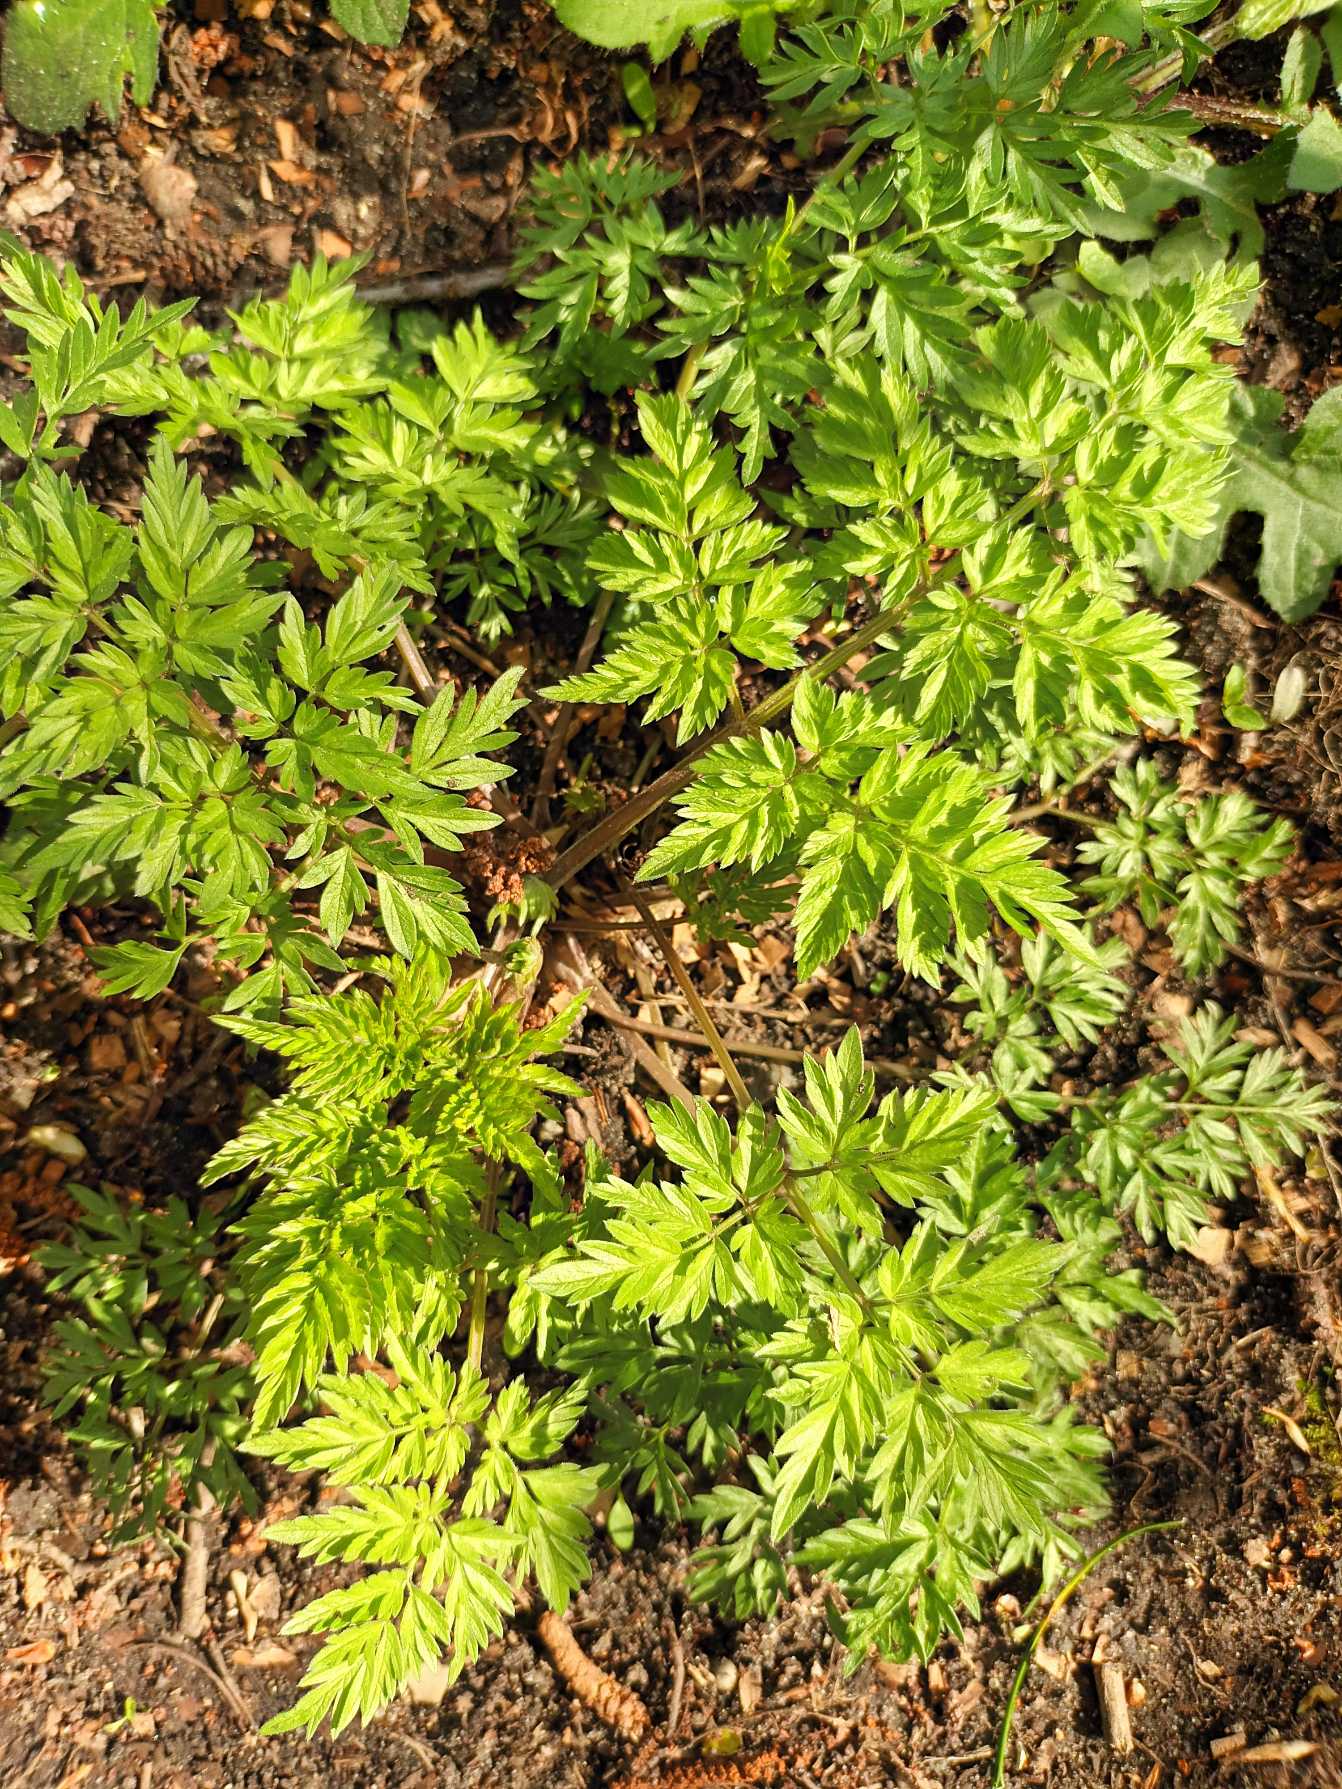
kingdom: Plantae
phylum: Tracheophyta
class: Magnoliopsida
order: Apiales
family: Apiaceae
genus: Anthriscus
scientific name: Anthriscus sylvestris
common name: Vild kørvel
